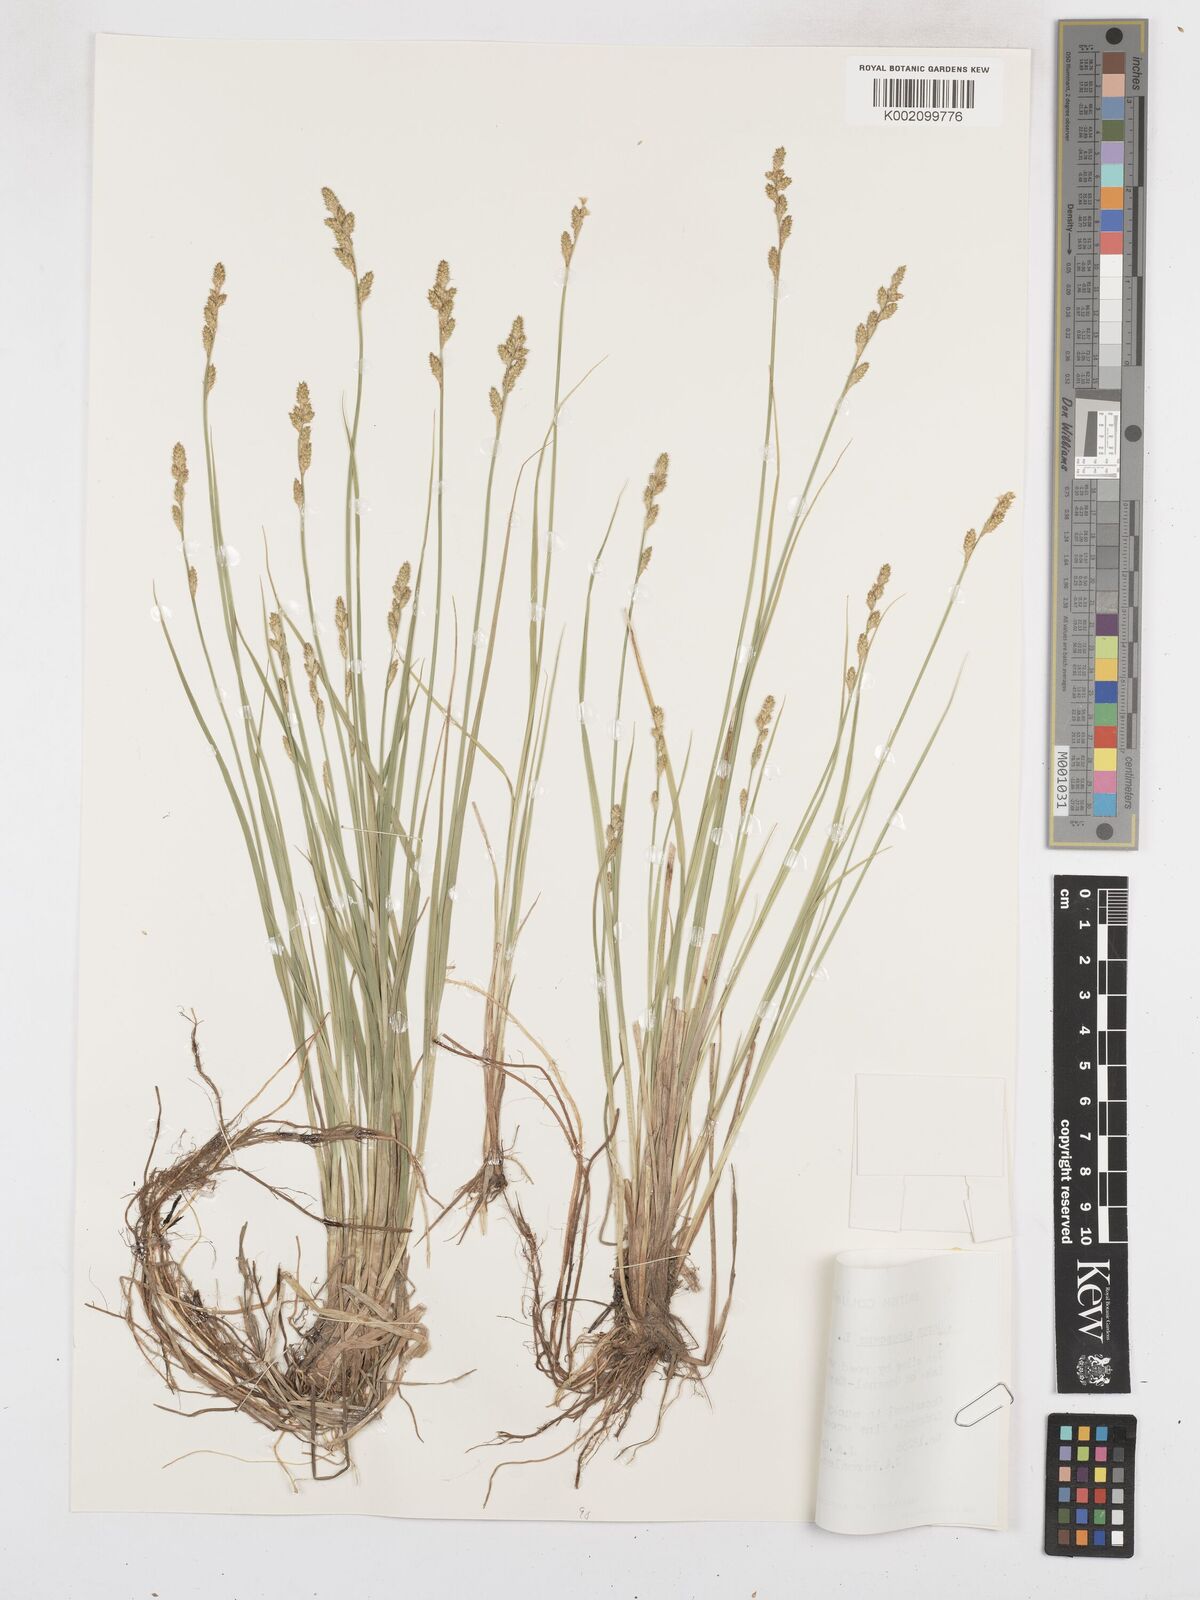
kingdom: Plantae
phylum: Tracheophyta
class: Liliopsida
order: Poales
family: Cyperaceae
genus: Carex
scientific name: Carex curta
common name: White sedge
